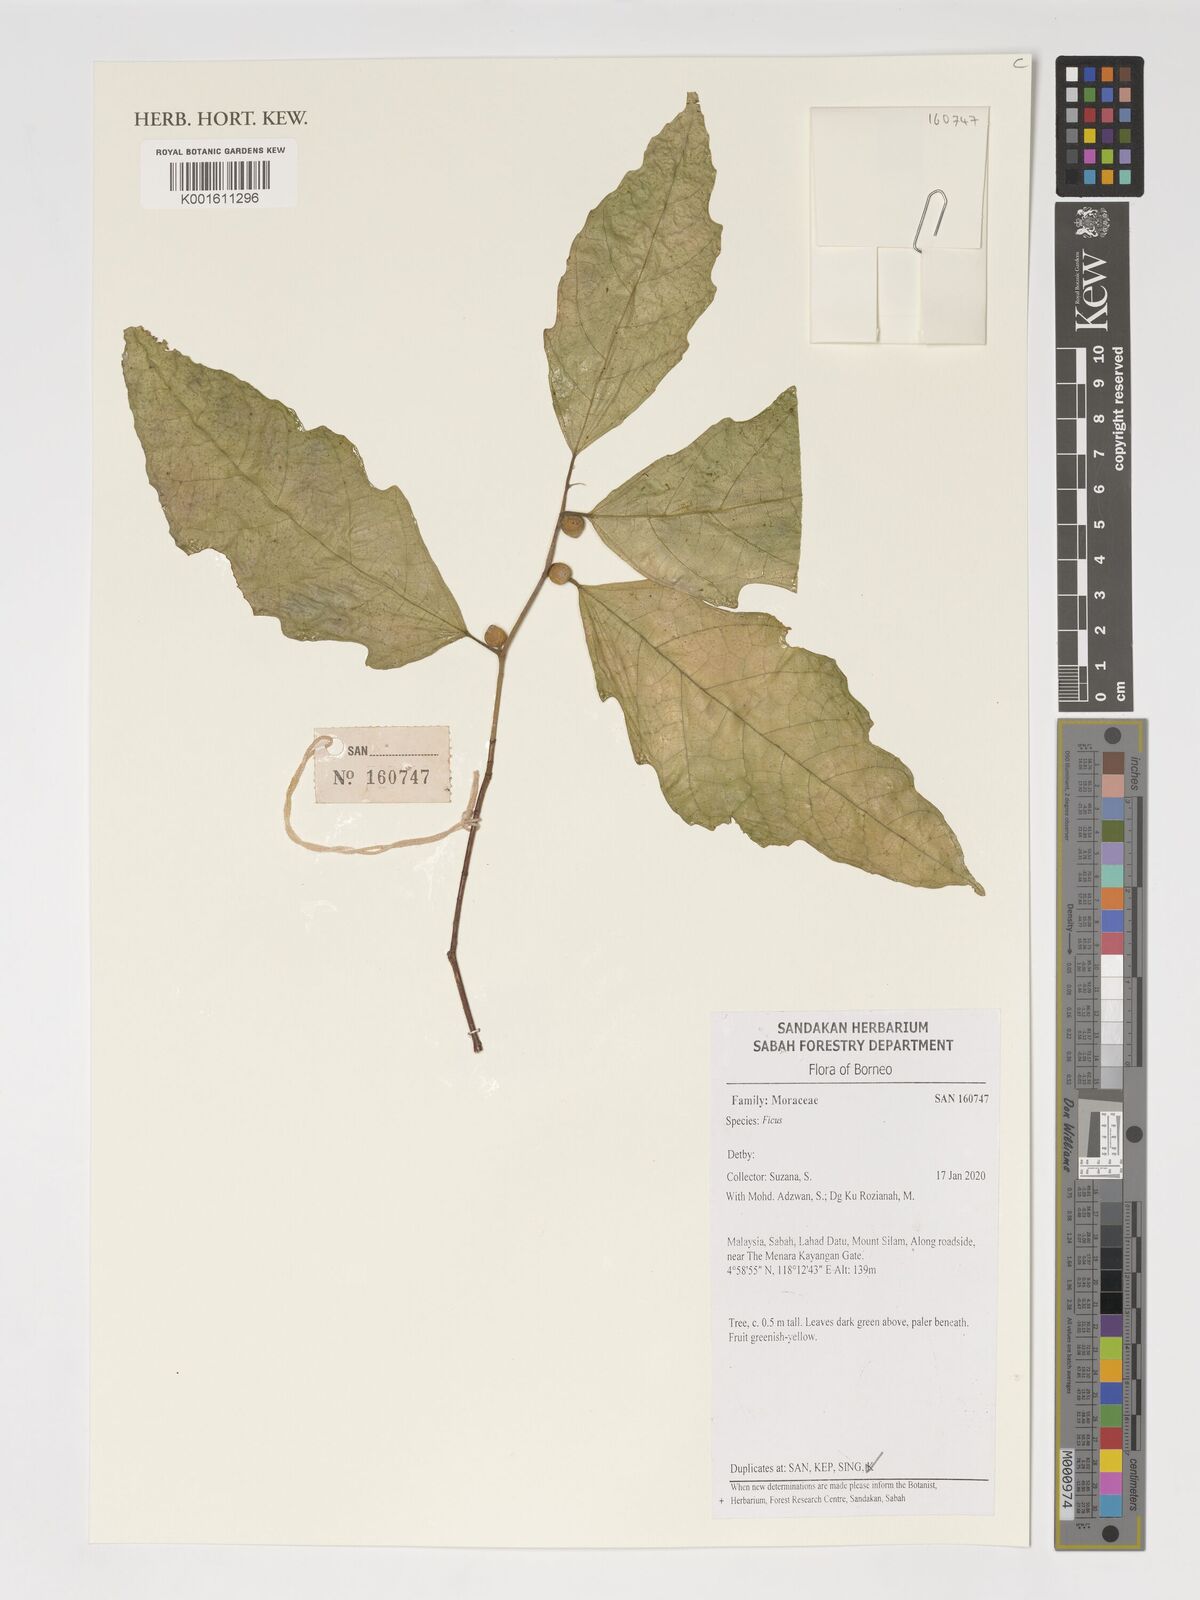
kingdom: Plantae
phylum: Tracheophyta
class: Magnoliopsida
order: Rosales
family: Moraceae
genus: Ficus
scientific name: Ficus
